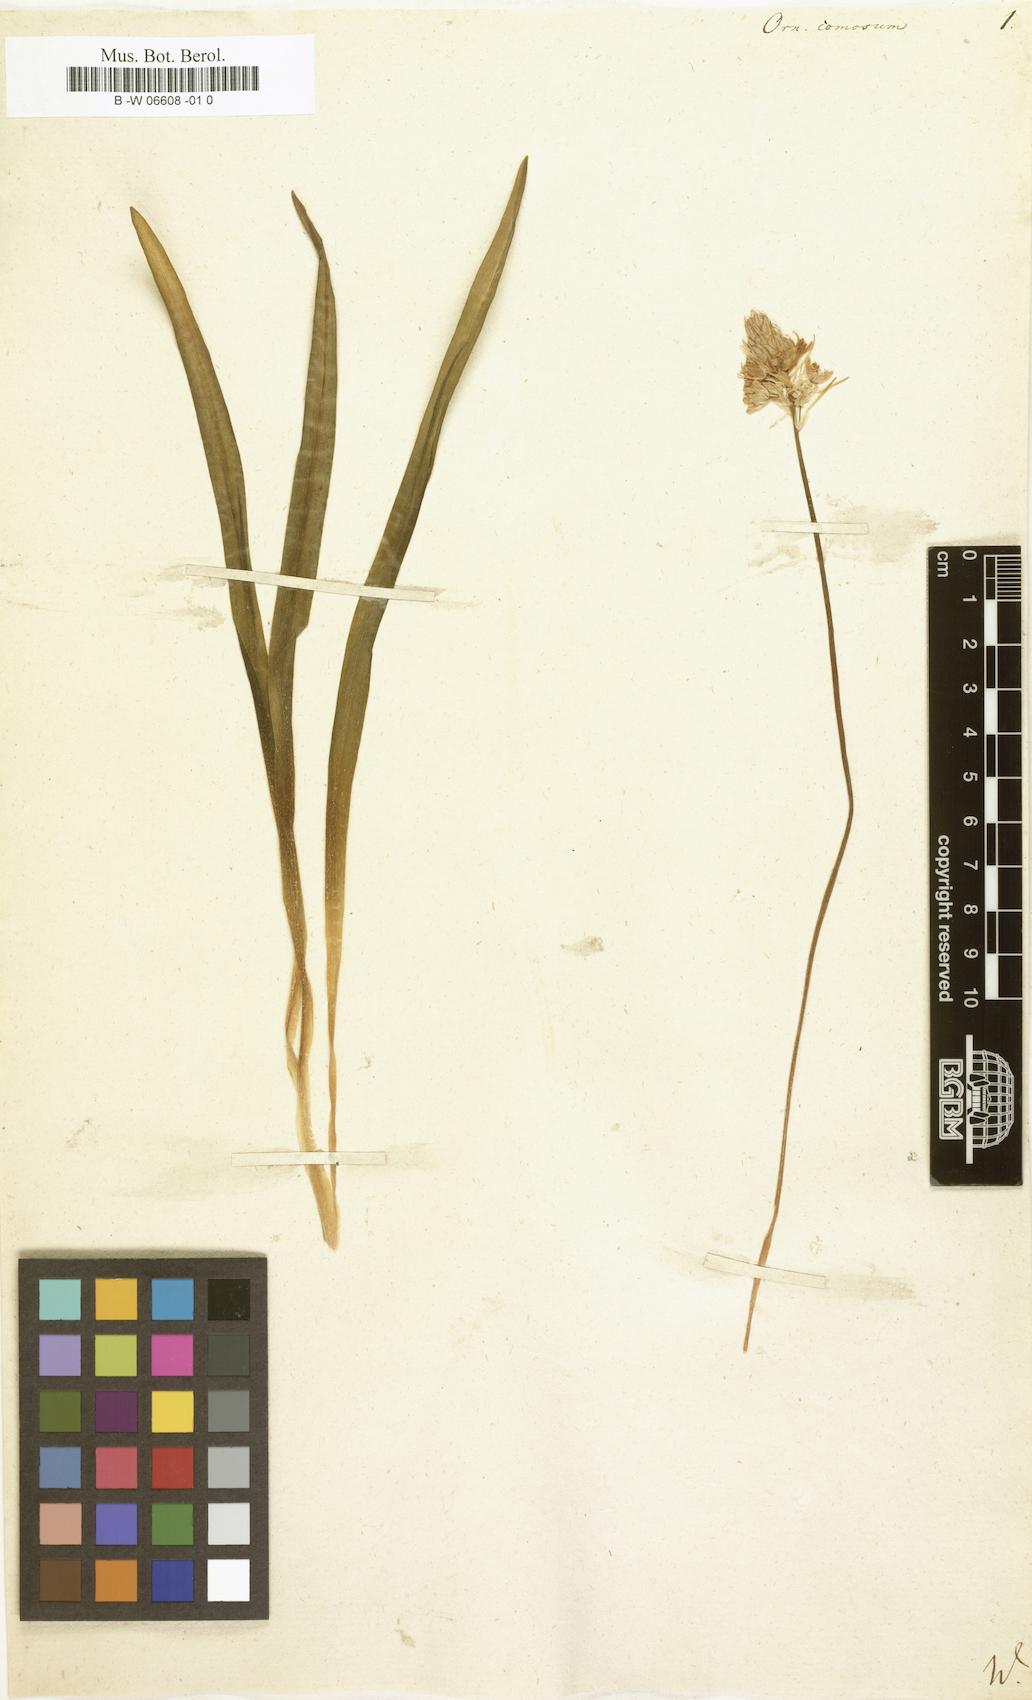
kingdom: Plantae
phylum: Tracheophyta
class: Liliopsida
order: Asparagales
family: Asparagaceae
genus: Ornithogalum
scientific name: Ornithogalum comosum
